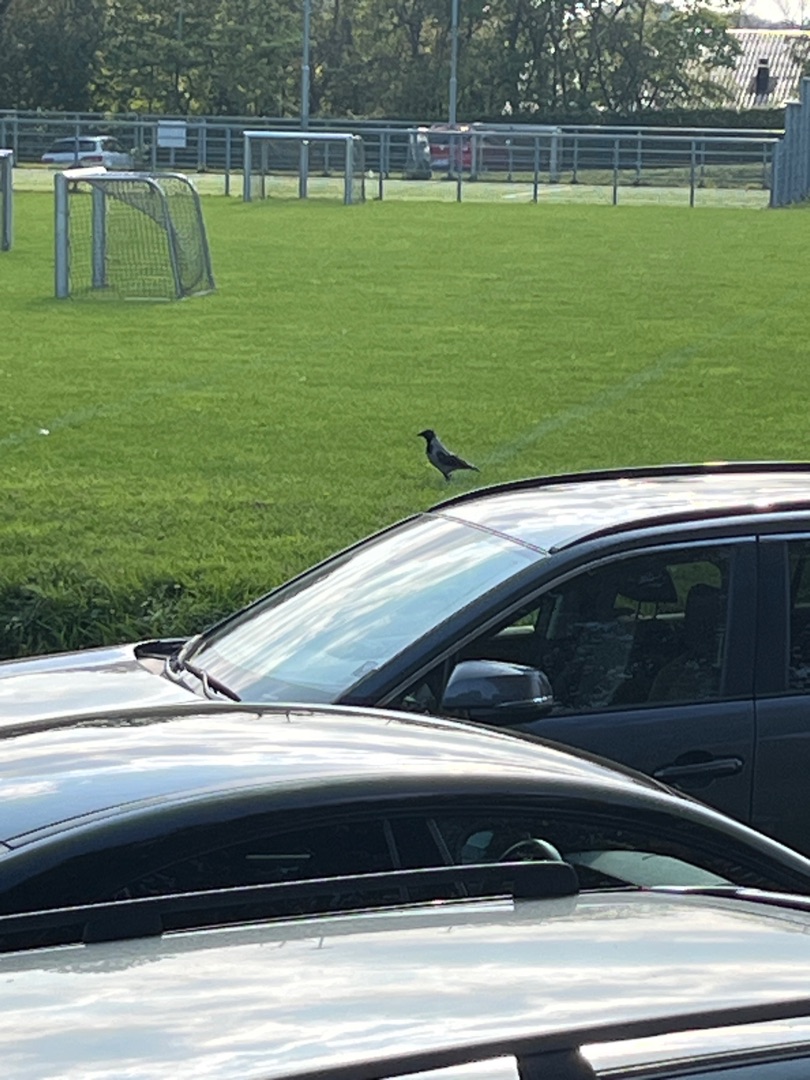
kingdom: Animalia
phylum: Chordata
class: Aves
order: Passeriformes
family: Corvidae
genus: Corvus
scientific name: Corvus cornix
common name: Gråkrage
